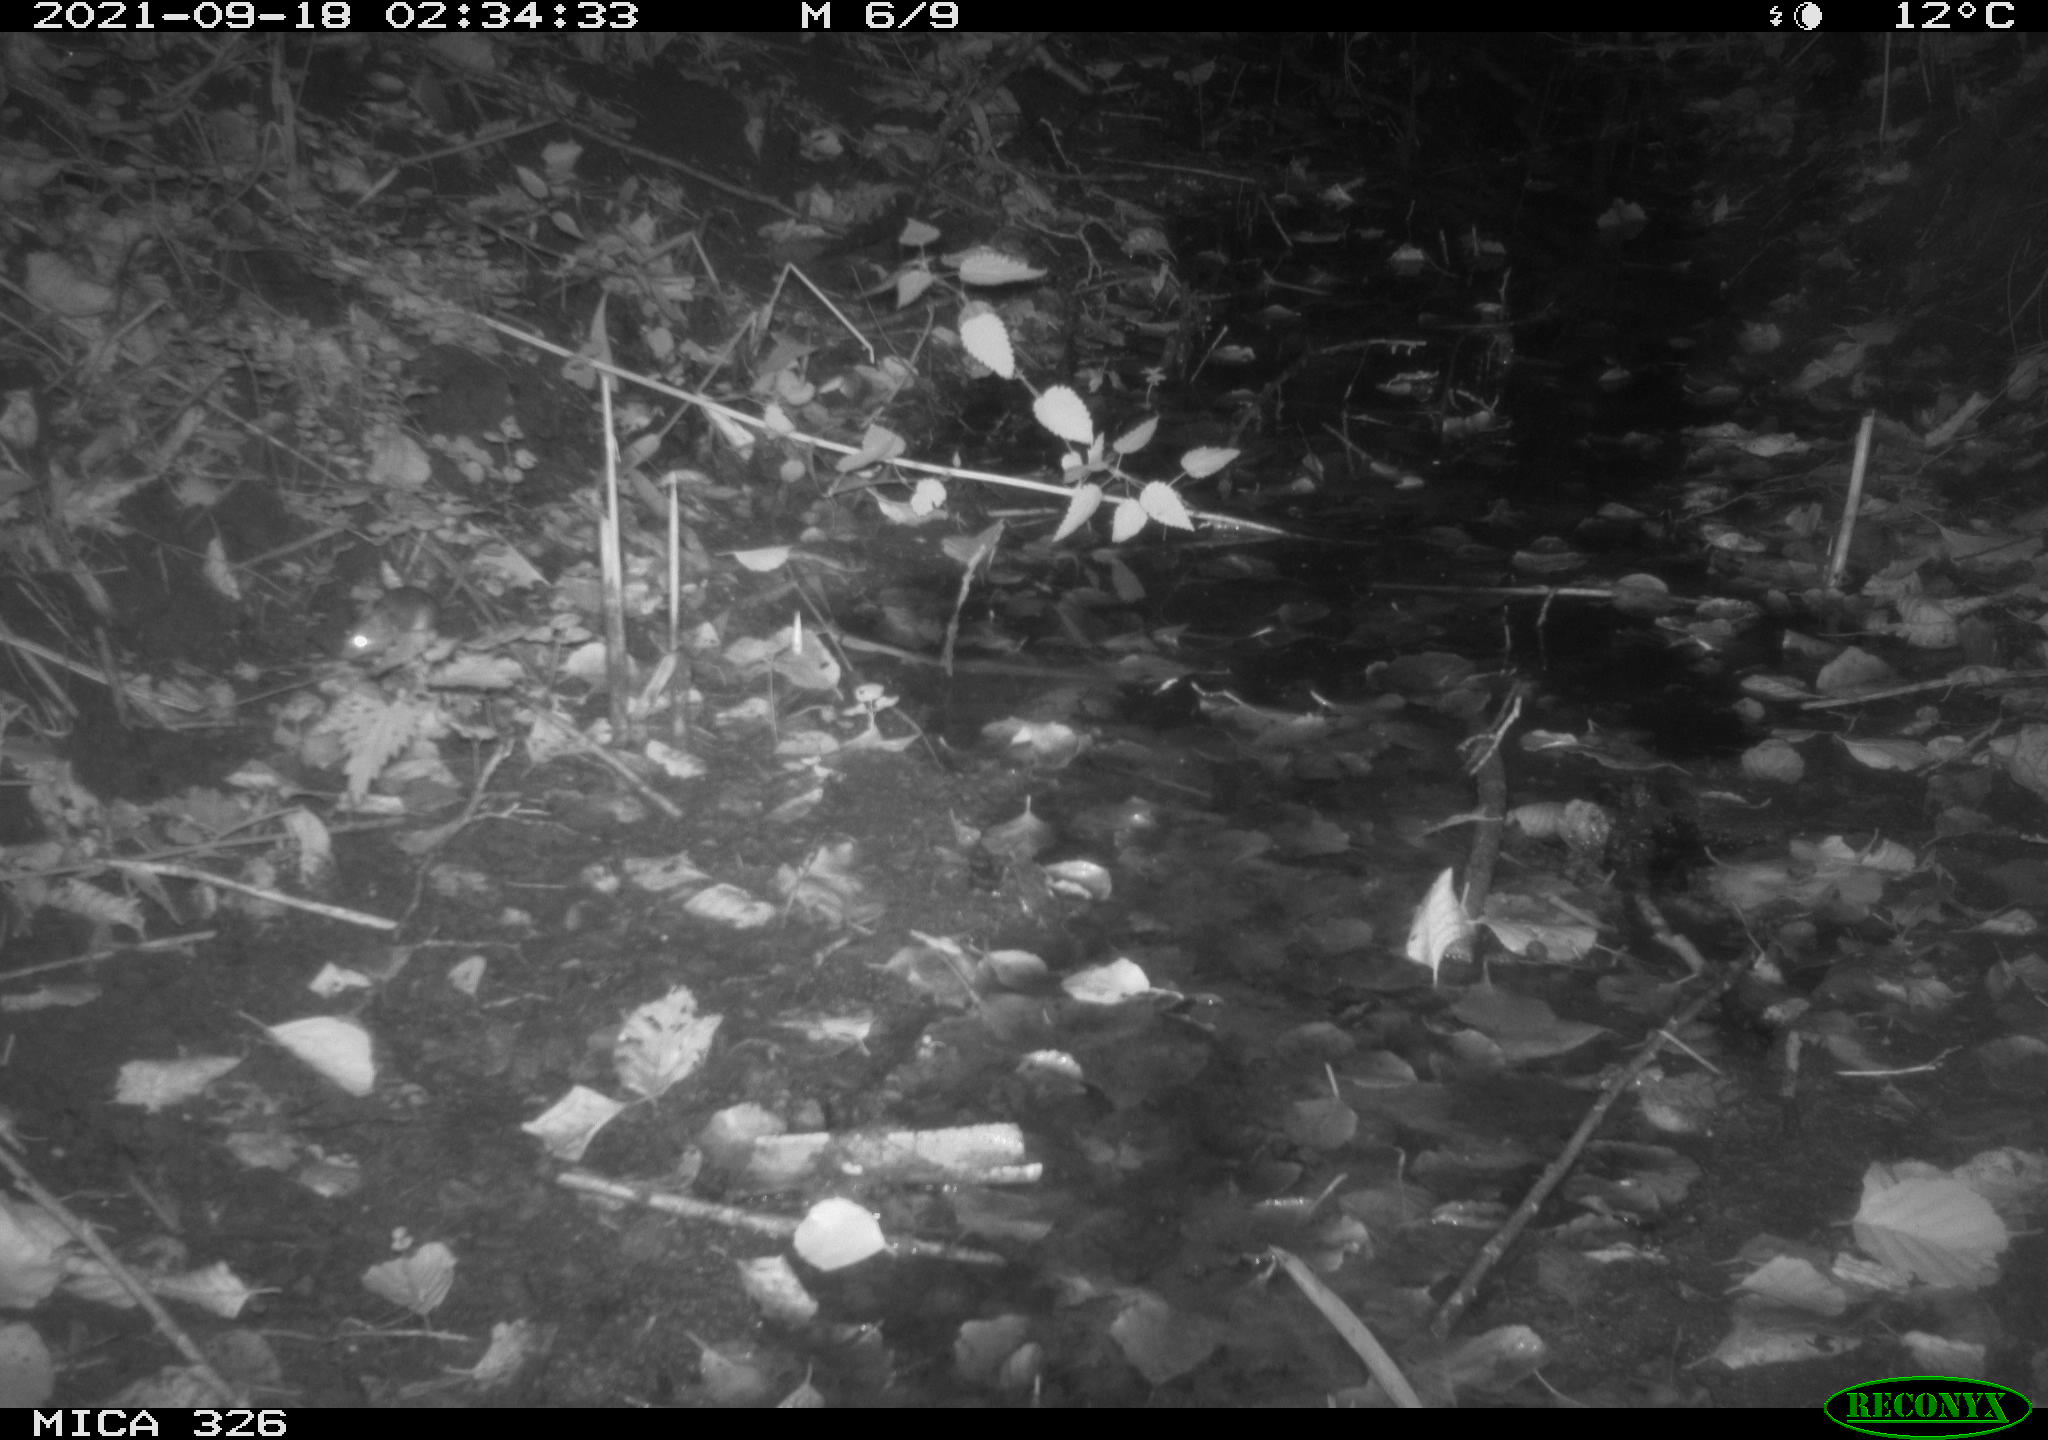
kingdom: Animalia
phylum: Chordata
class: Mammalia
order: Rodentia
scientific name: Rodentia
